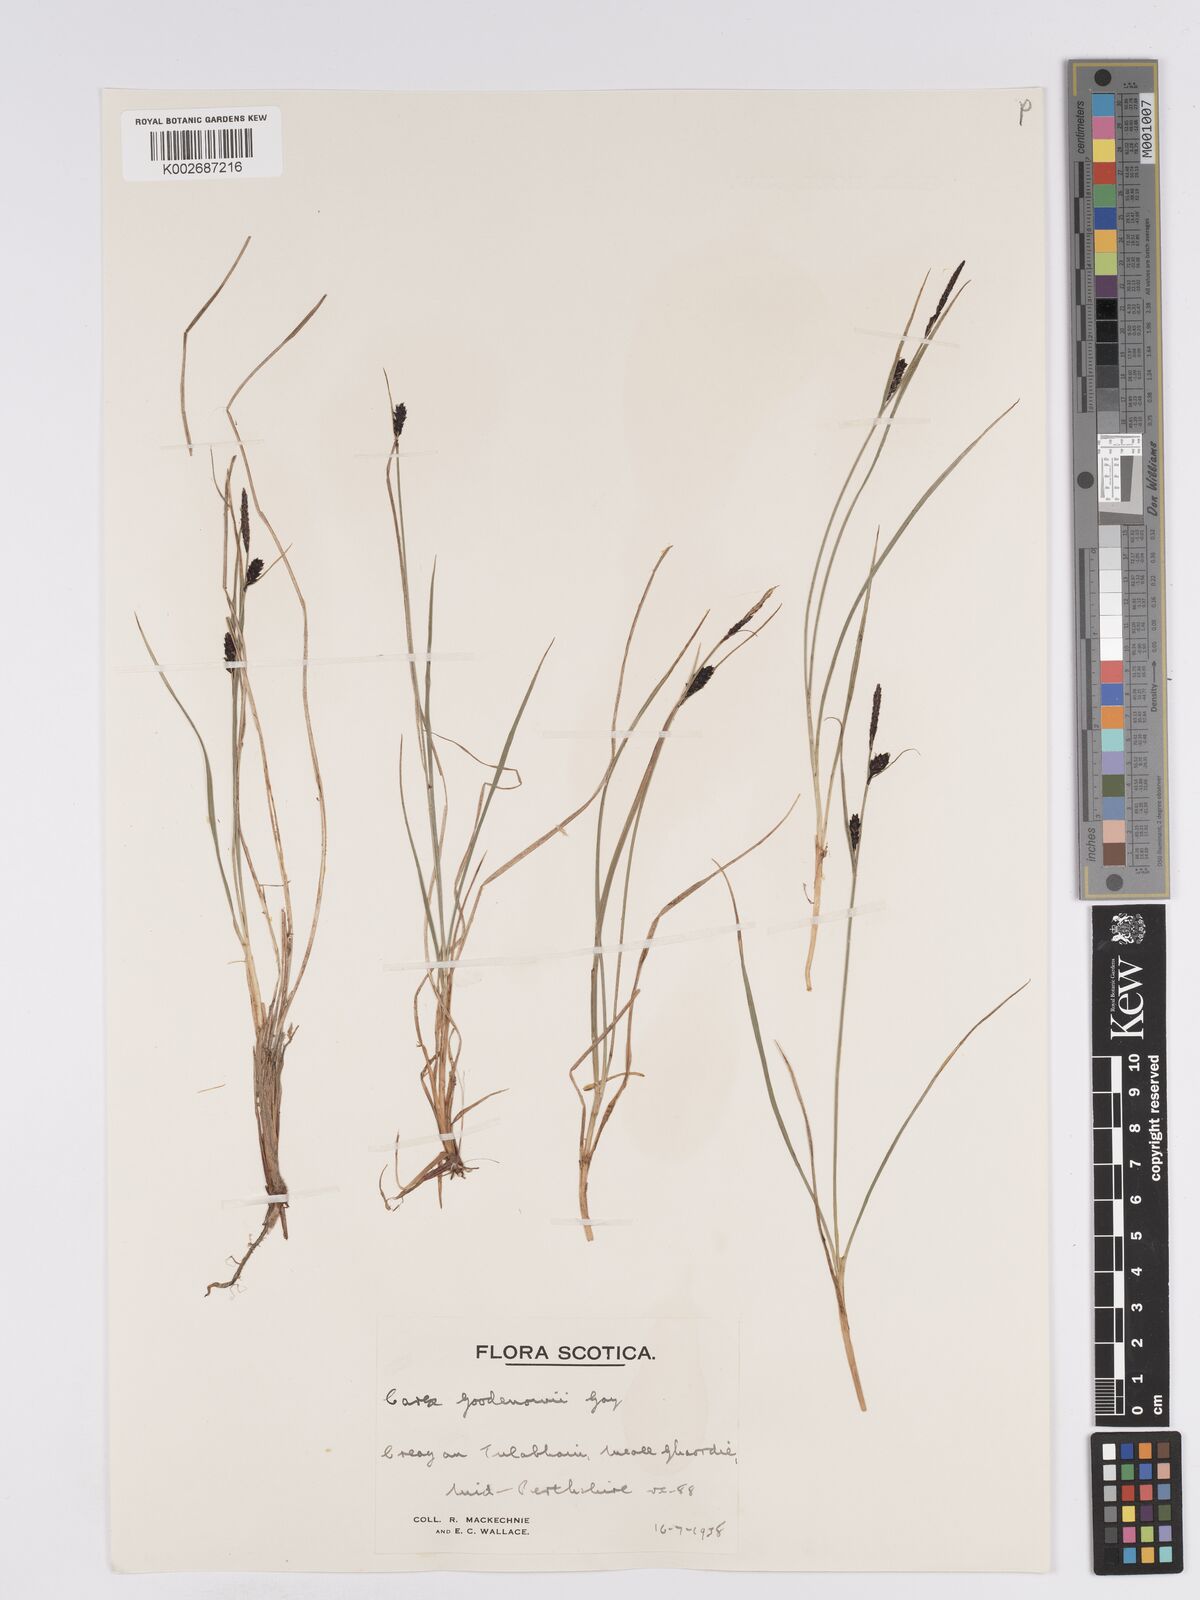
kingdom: Plantae
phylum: Tracheophyta
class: Liliopsida
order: Poales
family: Cyperaceae
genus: Carex
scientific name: Carex nigra
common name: Common sedge
